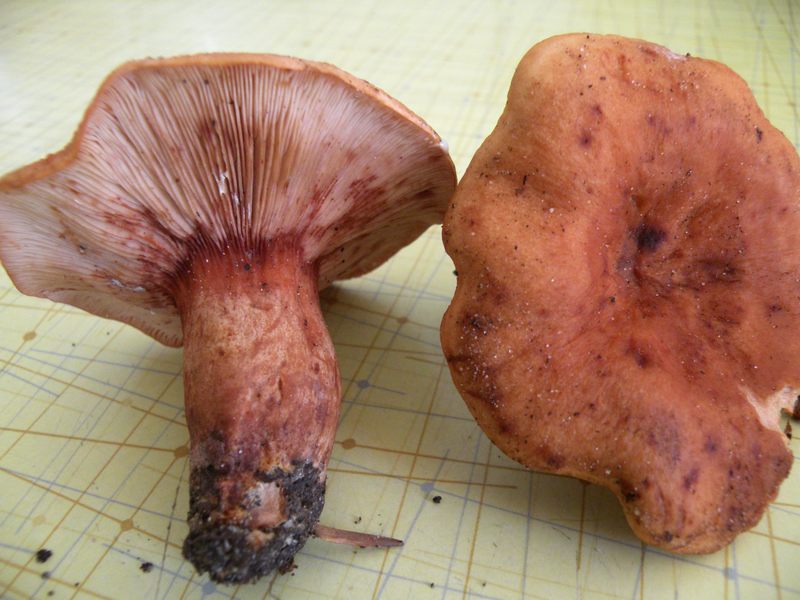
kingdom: Fungi
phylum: Basidiomycota
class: Agaricomycetes
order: Russulales
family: Russulaceae
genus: Lactarius
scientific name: Lactarius rubrocinctus
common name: halsbånd-mælkehat
